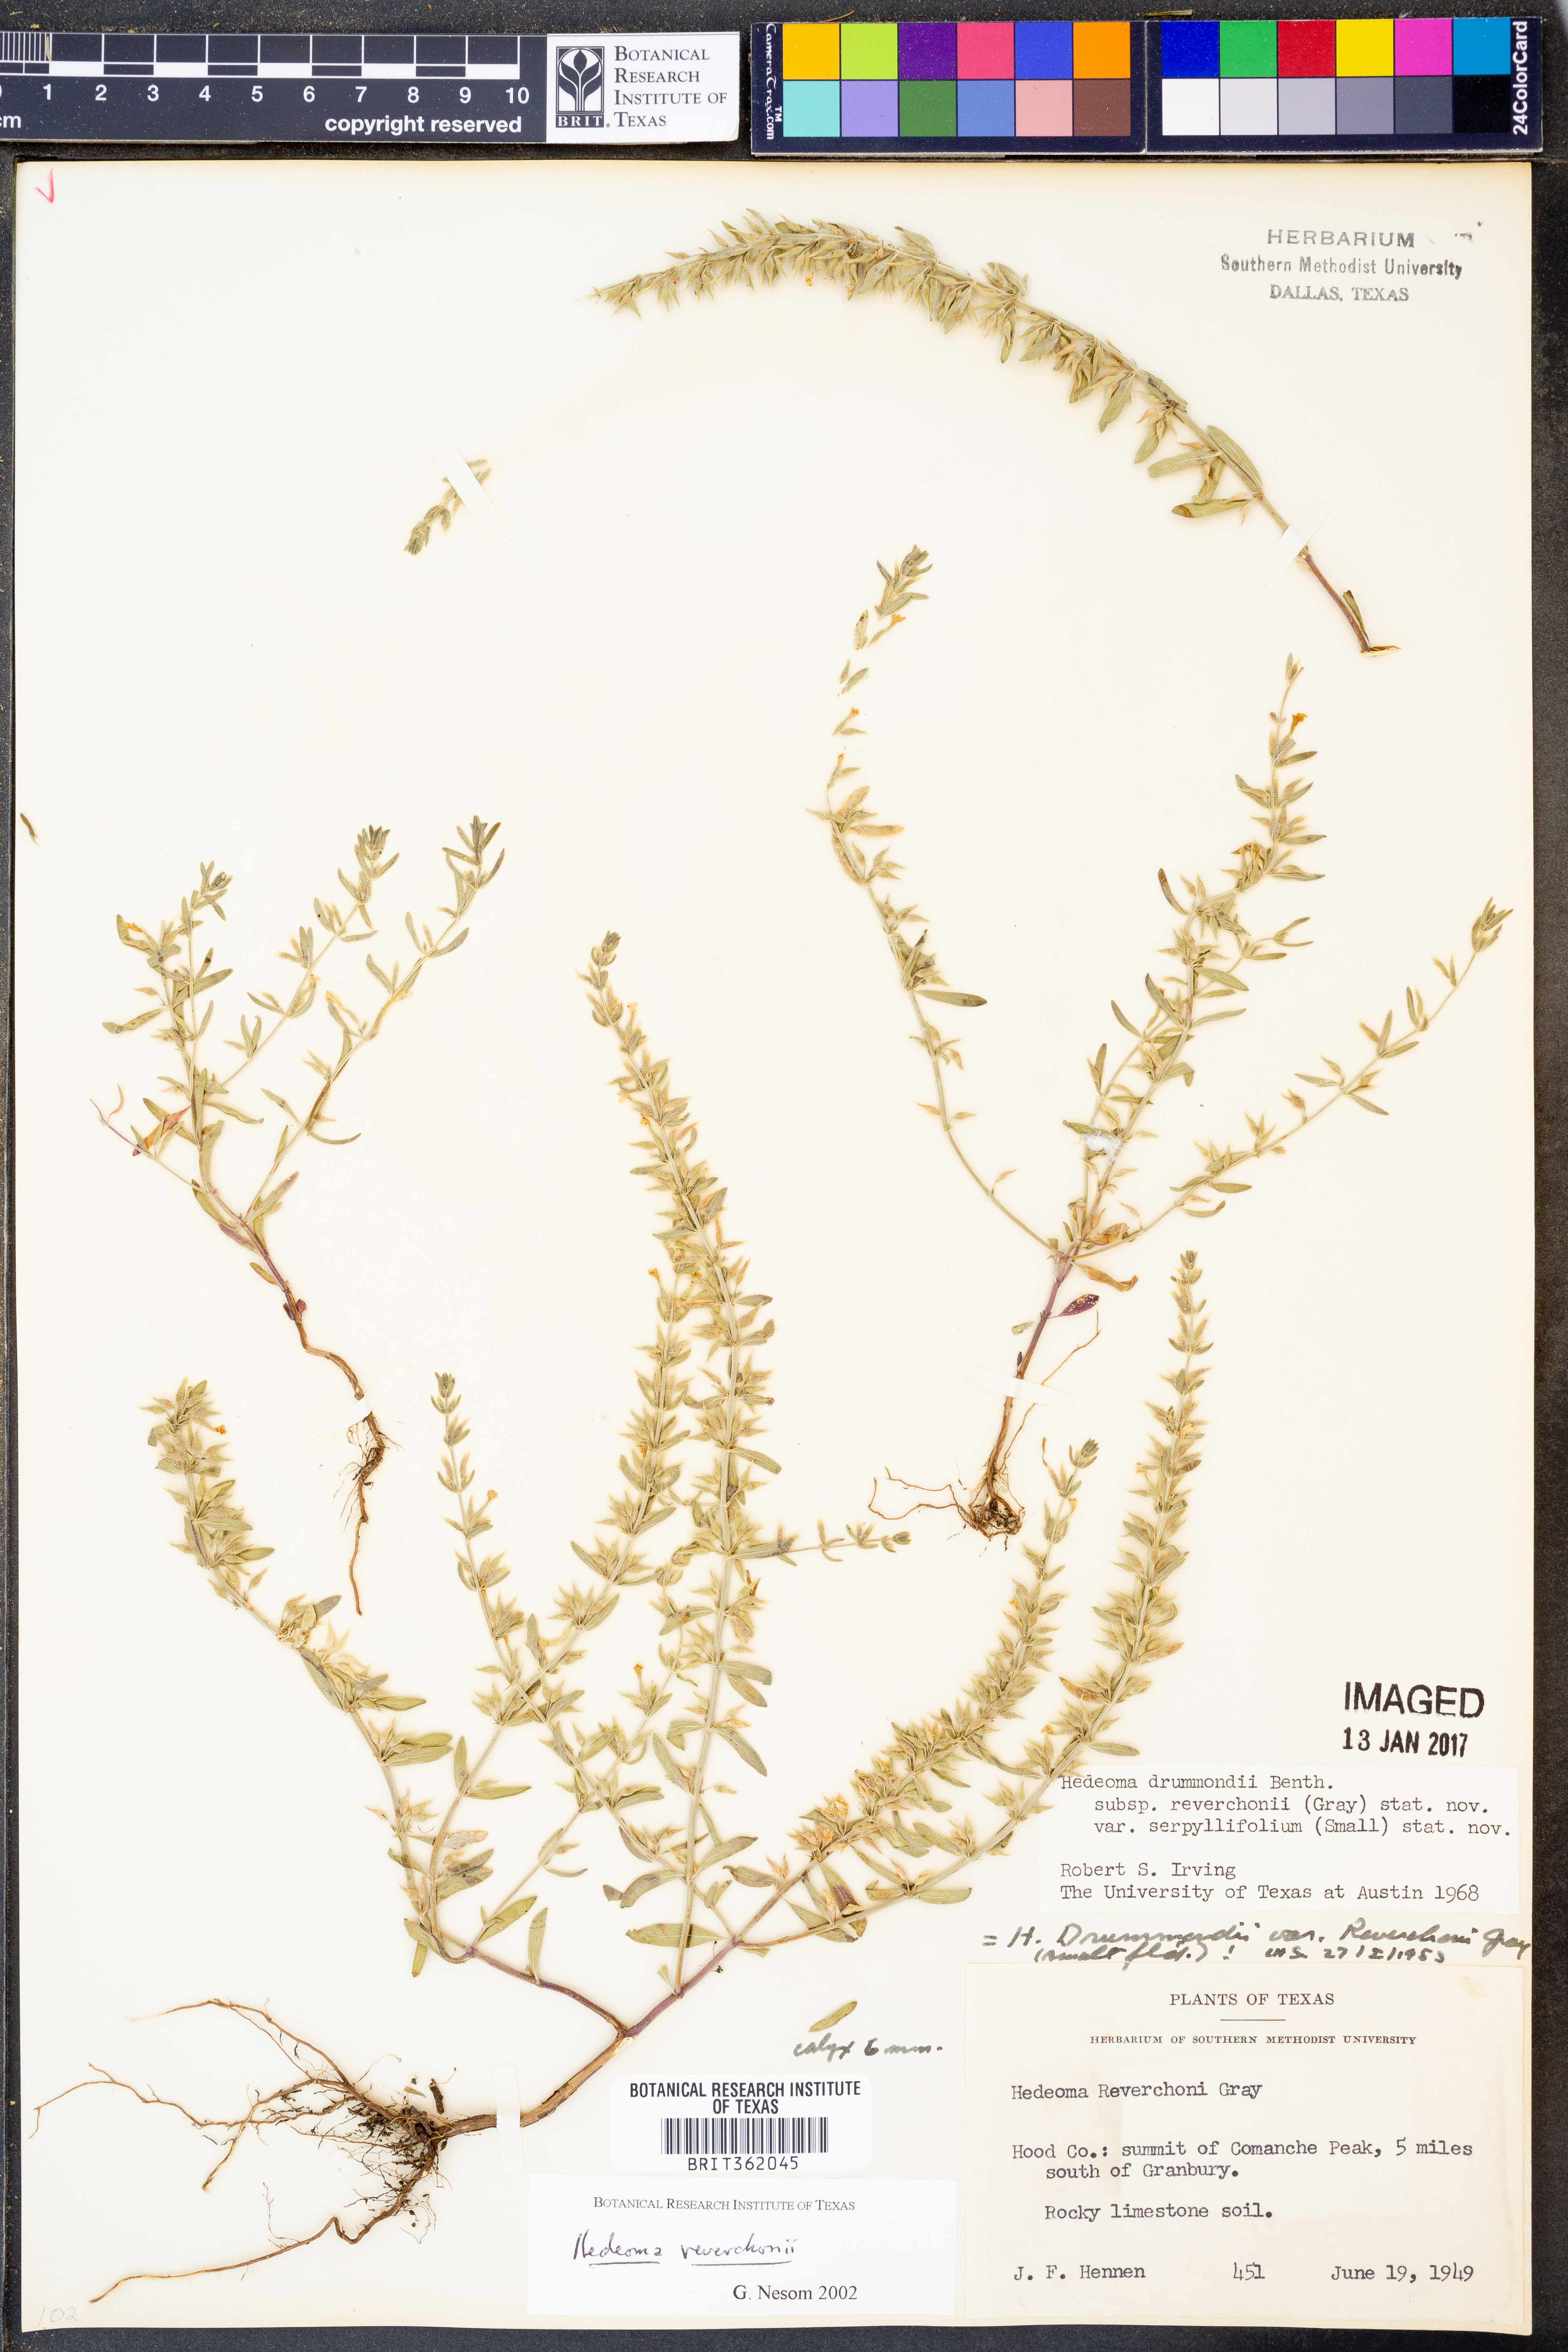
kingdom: Plantae
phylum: Tracheophyta
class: Magnoliopsida
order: Lamiales
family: Lamiaceae
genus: Hedeoma
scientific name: Hedeoma reverchonii
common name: Reverchon's false penny-royal
